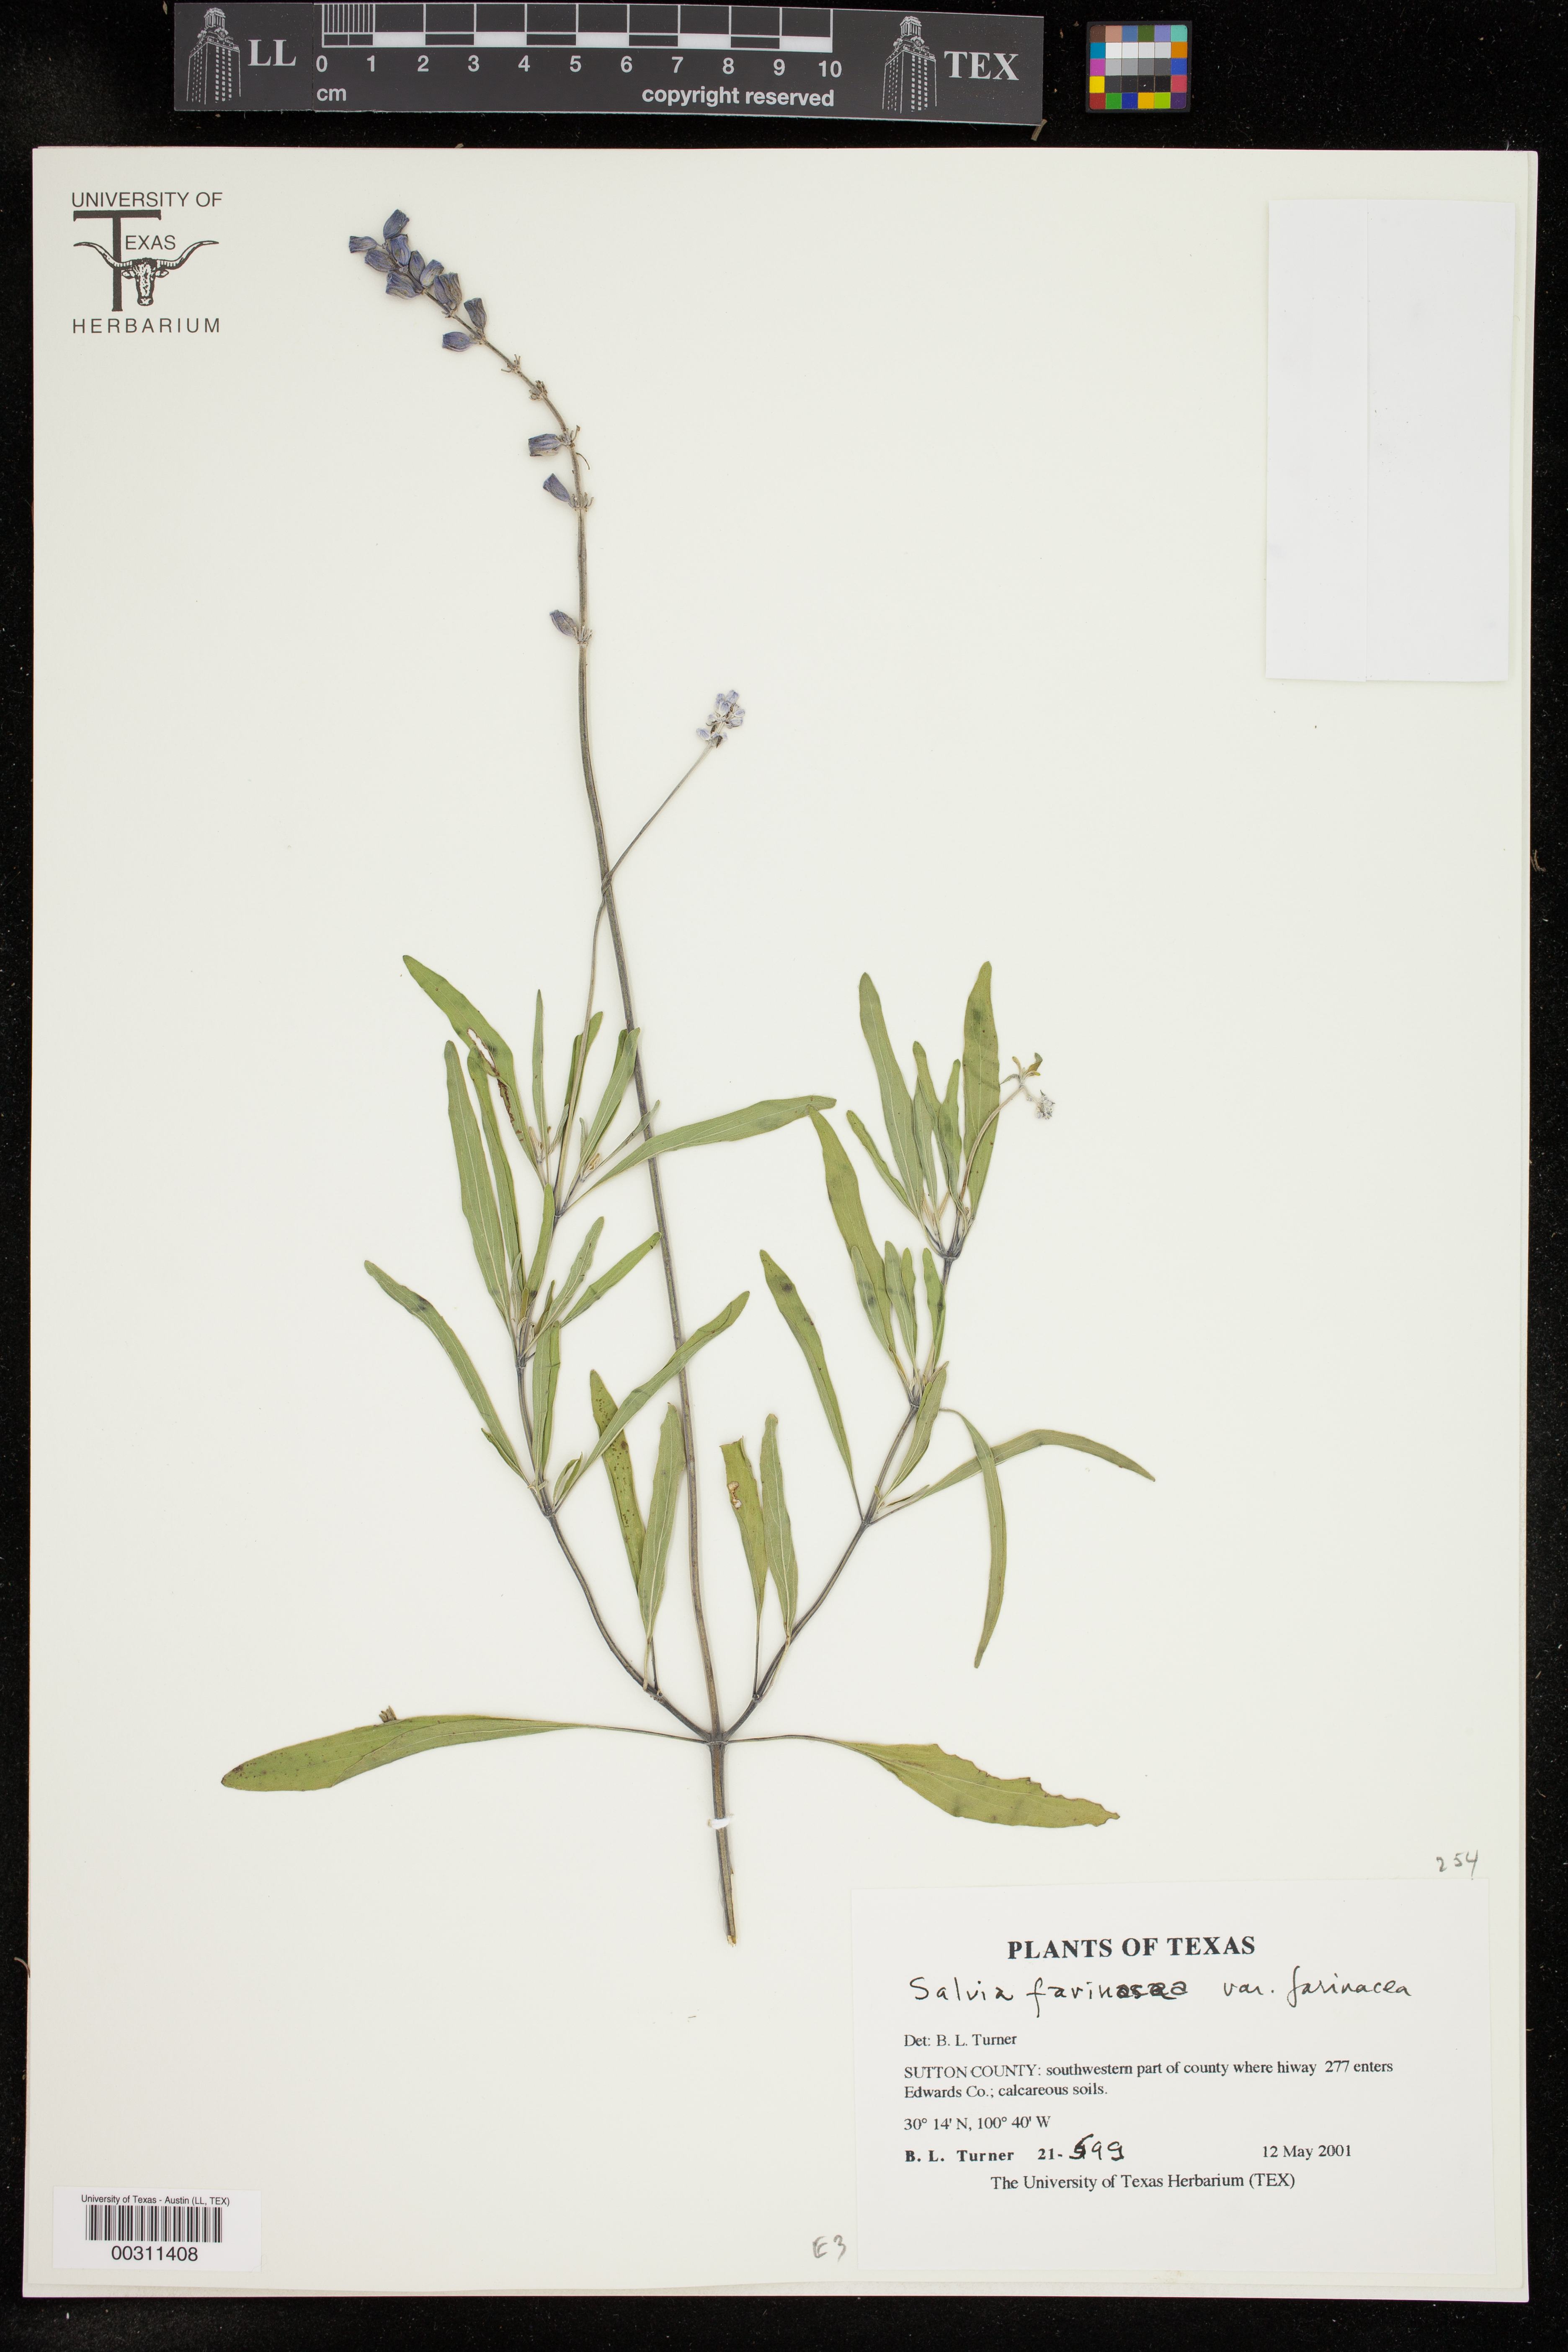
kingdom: Plantae
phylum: Tracheophyta
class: Magnoliopsida
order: Lamiales
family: Lamiaceae
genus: Salvia
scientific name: Salvia farinacea
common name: Mealy sage
